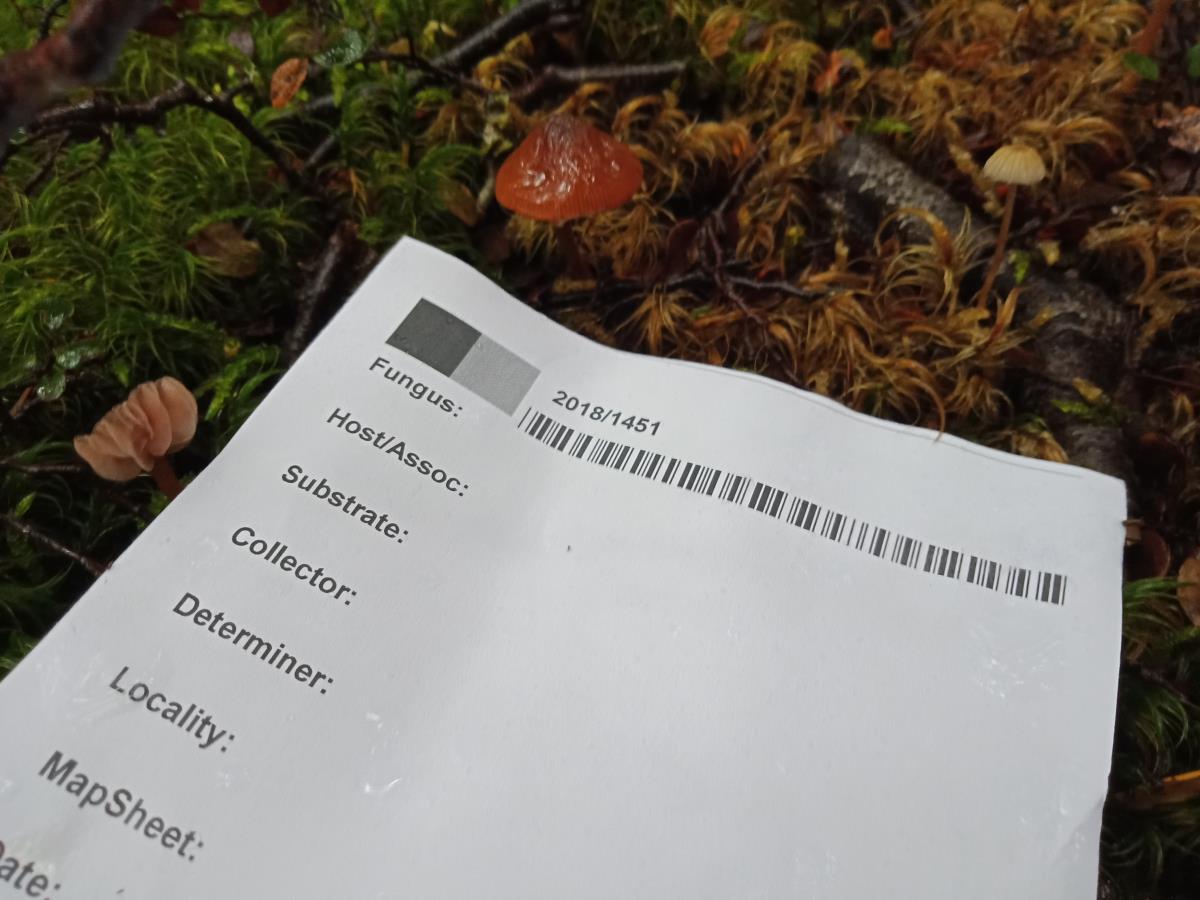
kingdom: Fungi
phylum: Basidiomycota
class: Agaricomycetes
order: Agaricales
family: Bolbitiaceae
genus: Descolea
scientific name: Descolea phlebophora
